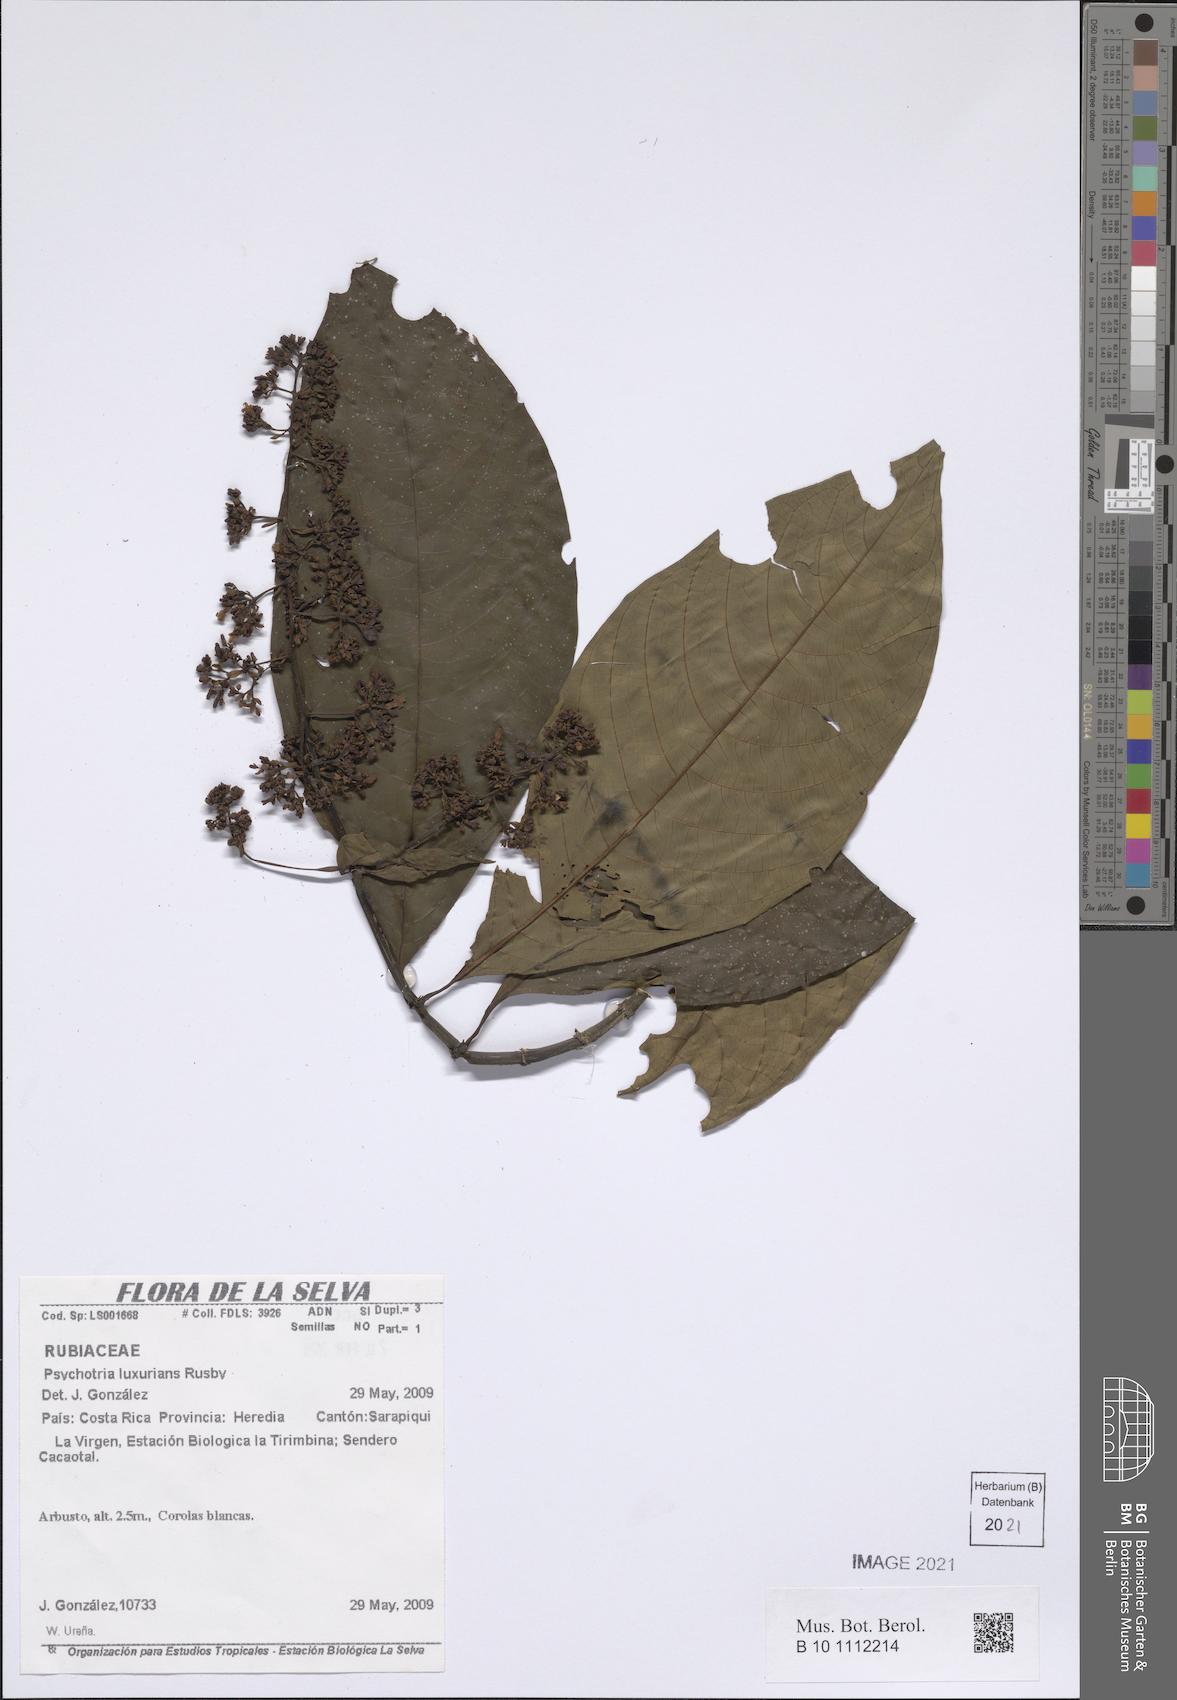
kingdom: Plantae
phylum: Tracheophyta
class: Magnoliopsida
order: Gentianales
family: Rubiaceae
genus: Palicourea
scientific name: Palicourea luxurians
